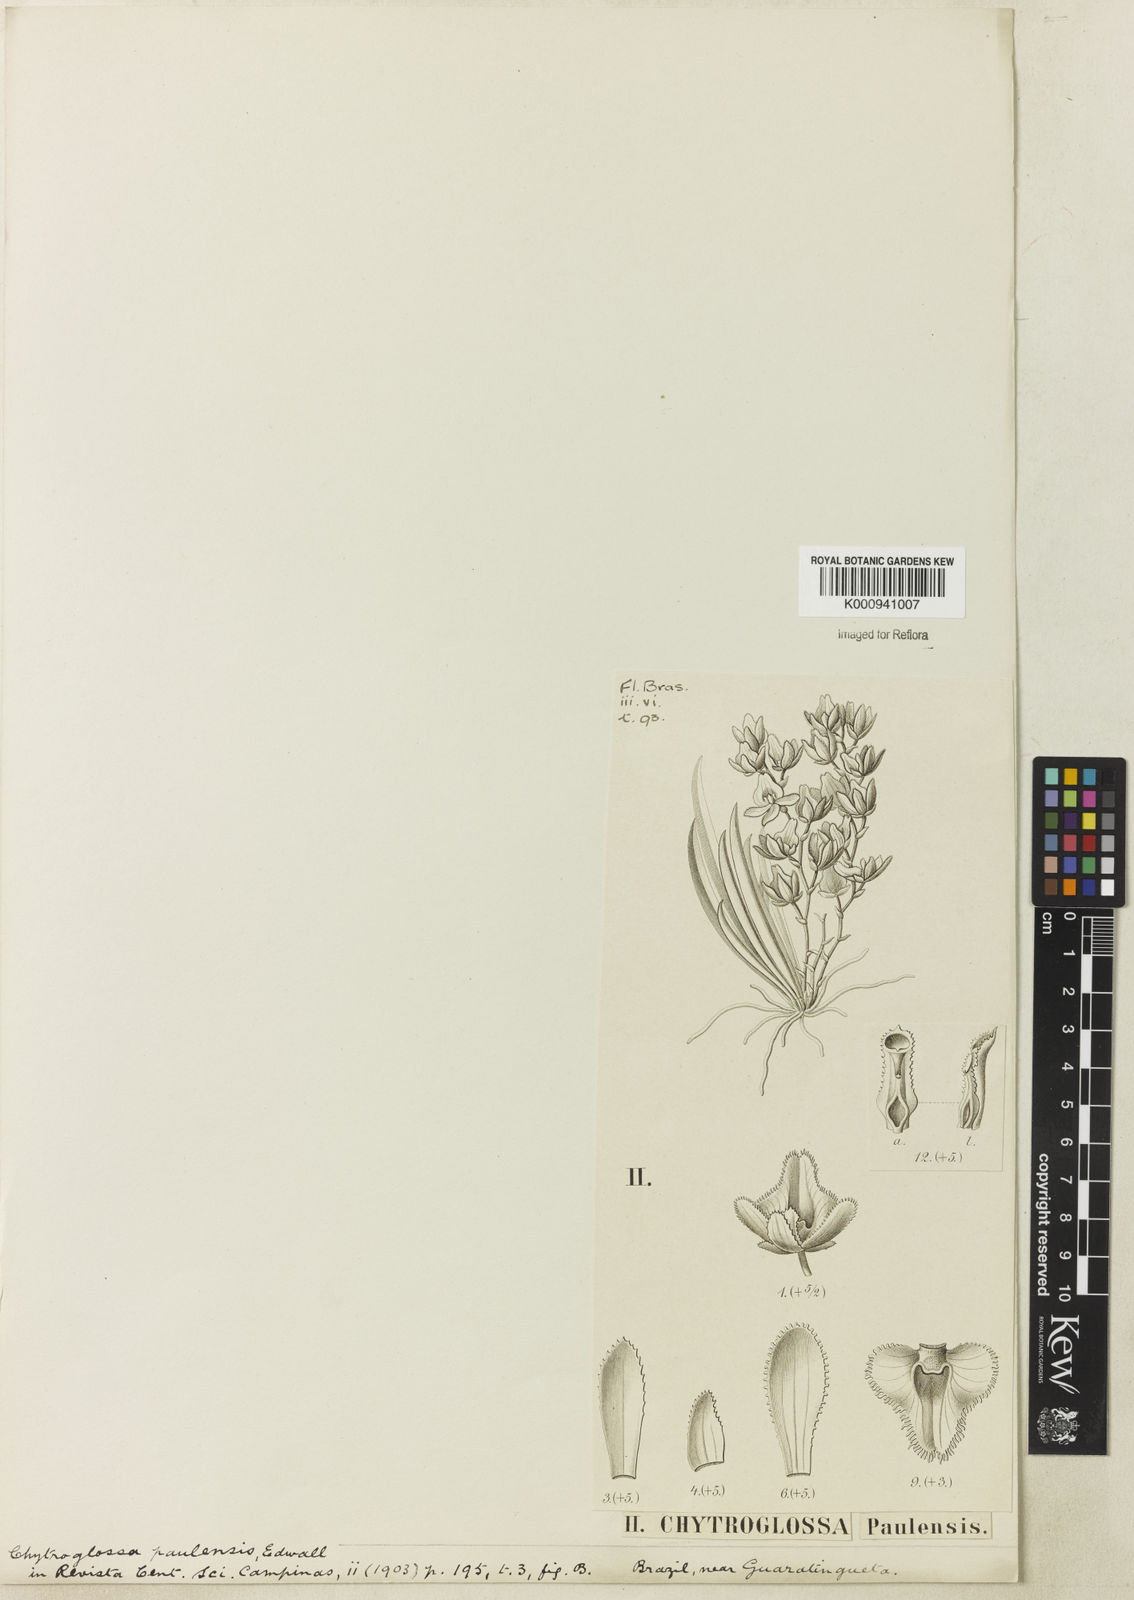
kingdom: Plantae
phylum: Tracheophyta
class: Liliopsida
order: Asparagales
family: Orchidaceae
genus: Chytroglossa
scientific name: Chytroglossa paulensis
